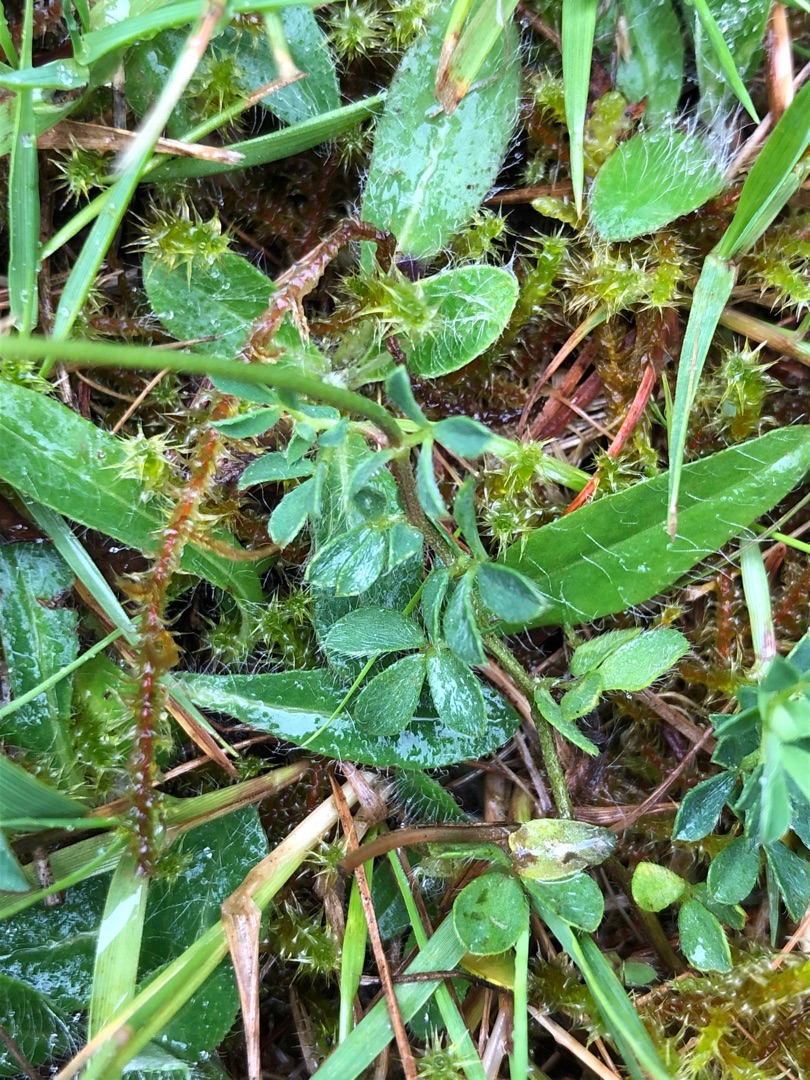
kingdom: Plantae
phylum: Tracheophyta
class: Magnoliopsida
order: Fabales
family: Fabaceae
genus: Lotus
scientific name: Lotus corniculatus
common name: Almindelig kællingetand
